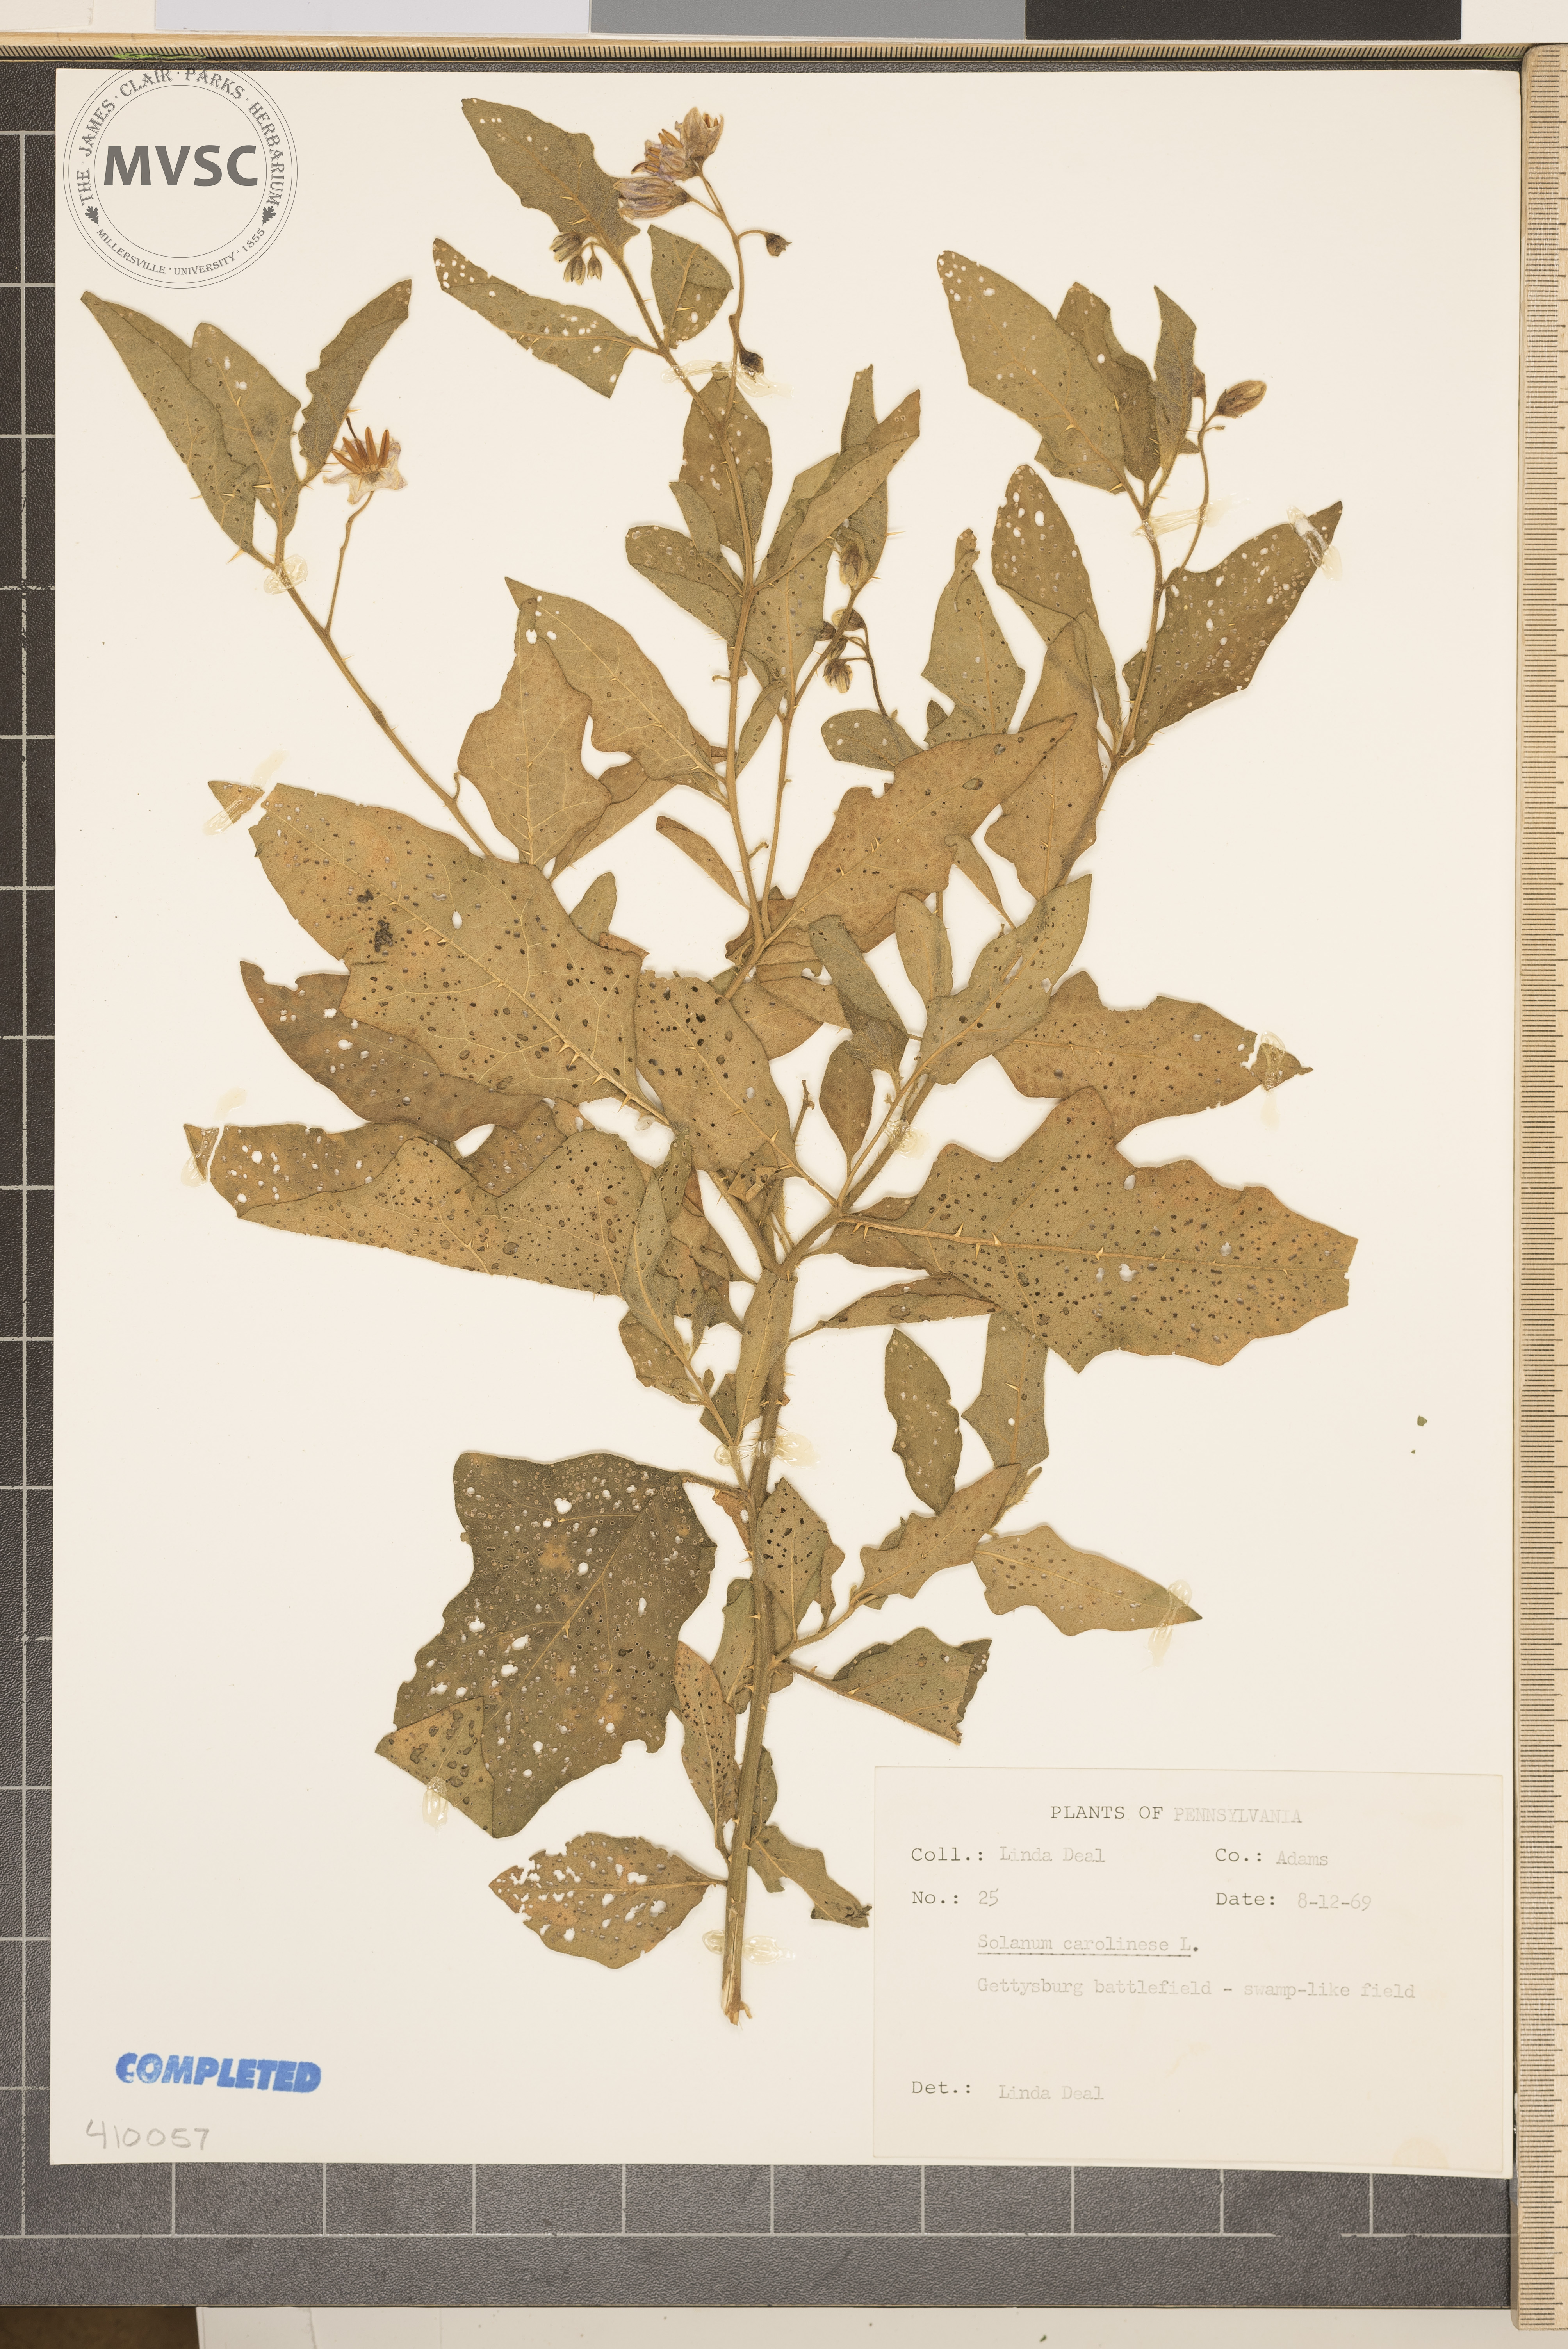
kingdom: Plantae
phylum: Tracheophyta
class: Magnoliopsida
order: Solanales
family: Solanaceae
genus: Solanum
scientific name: Solanum carolinense
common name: Horse-nettle
